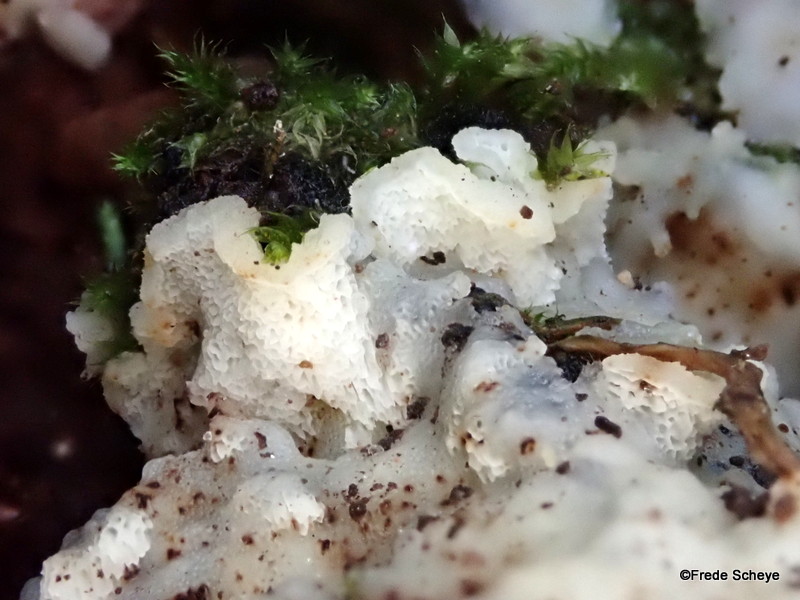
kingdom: Fungi
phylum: Basidiomycota
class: Agaricomycetes
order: Polyporales
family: Meruliaceae
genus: Physisporinus
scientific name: Physisporinus vitreus
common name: mastesvamp
